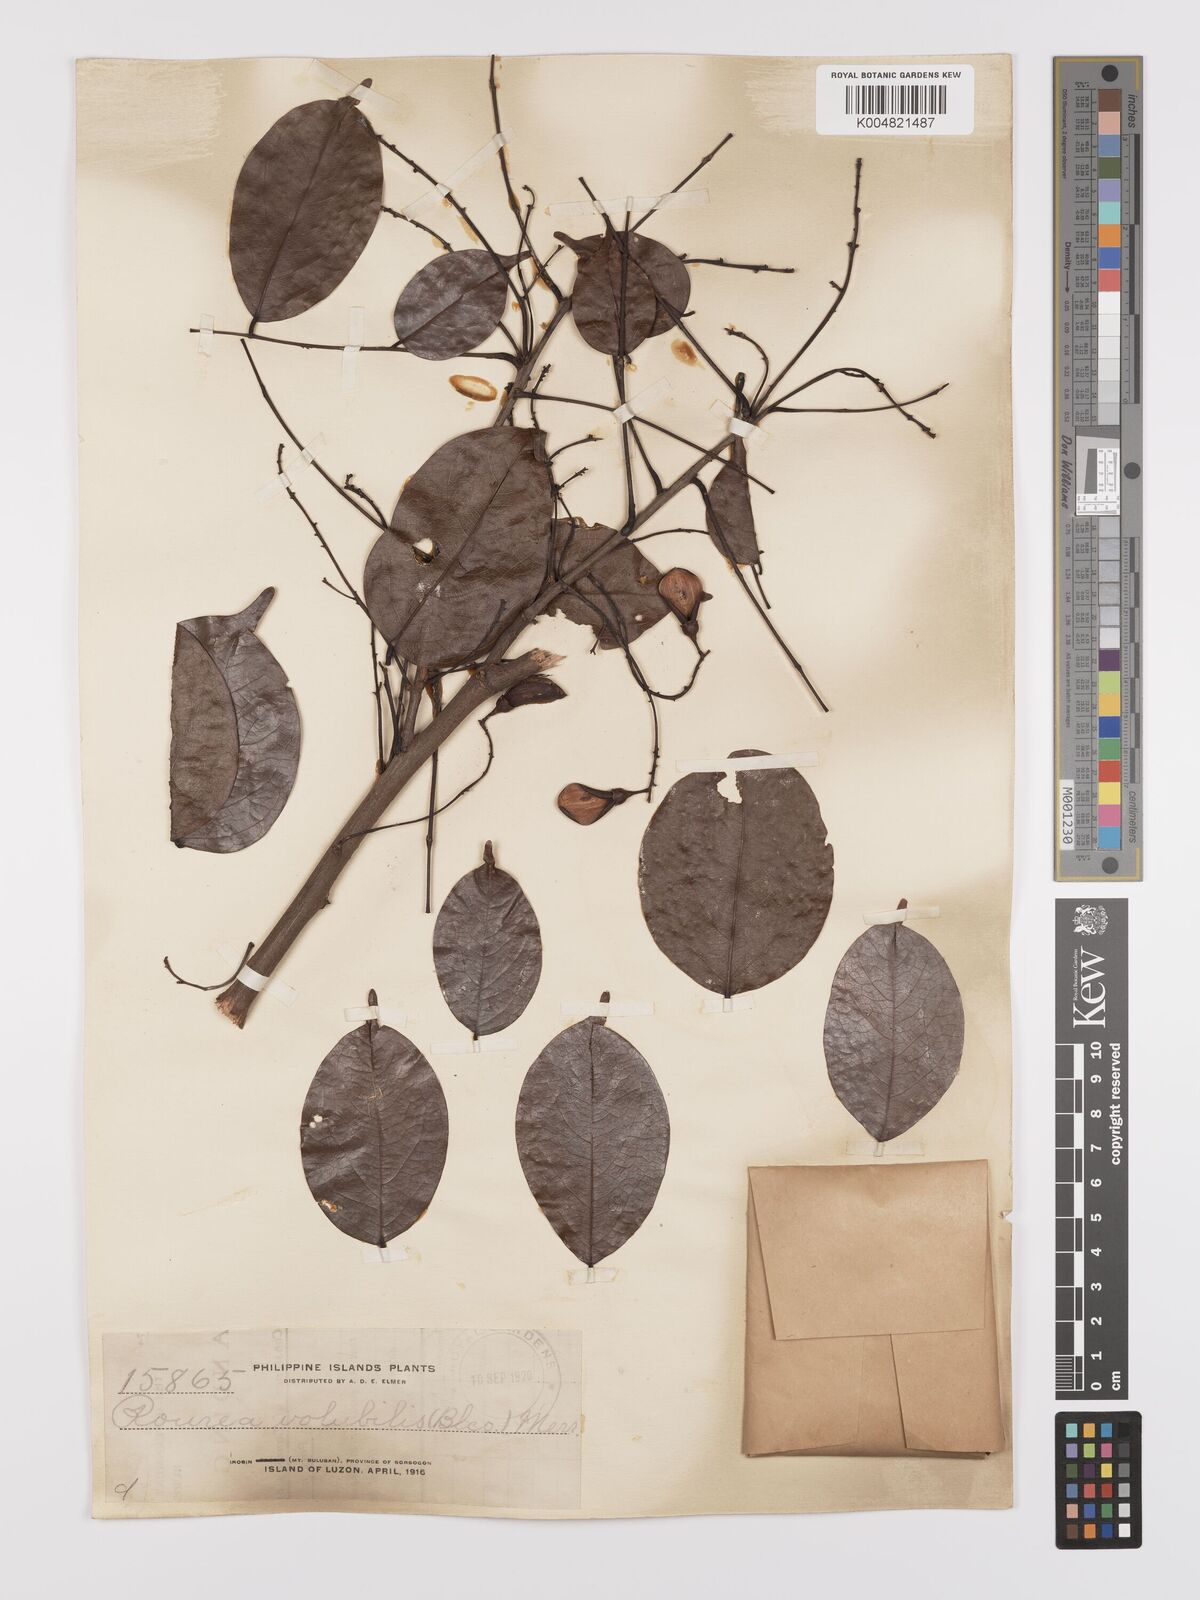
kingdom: Plantae
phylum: Tracheophyta
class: Magnoliopsida
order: Oxalidales
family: Connaraceae
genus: Rourea
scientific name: Rourea minor
